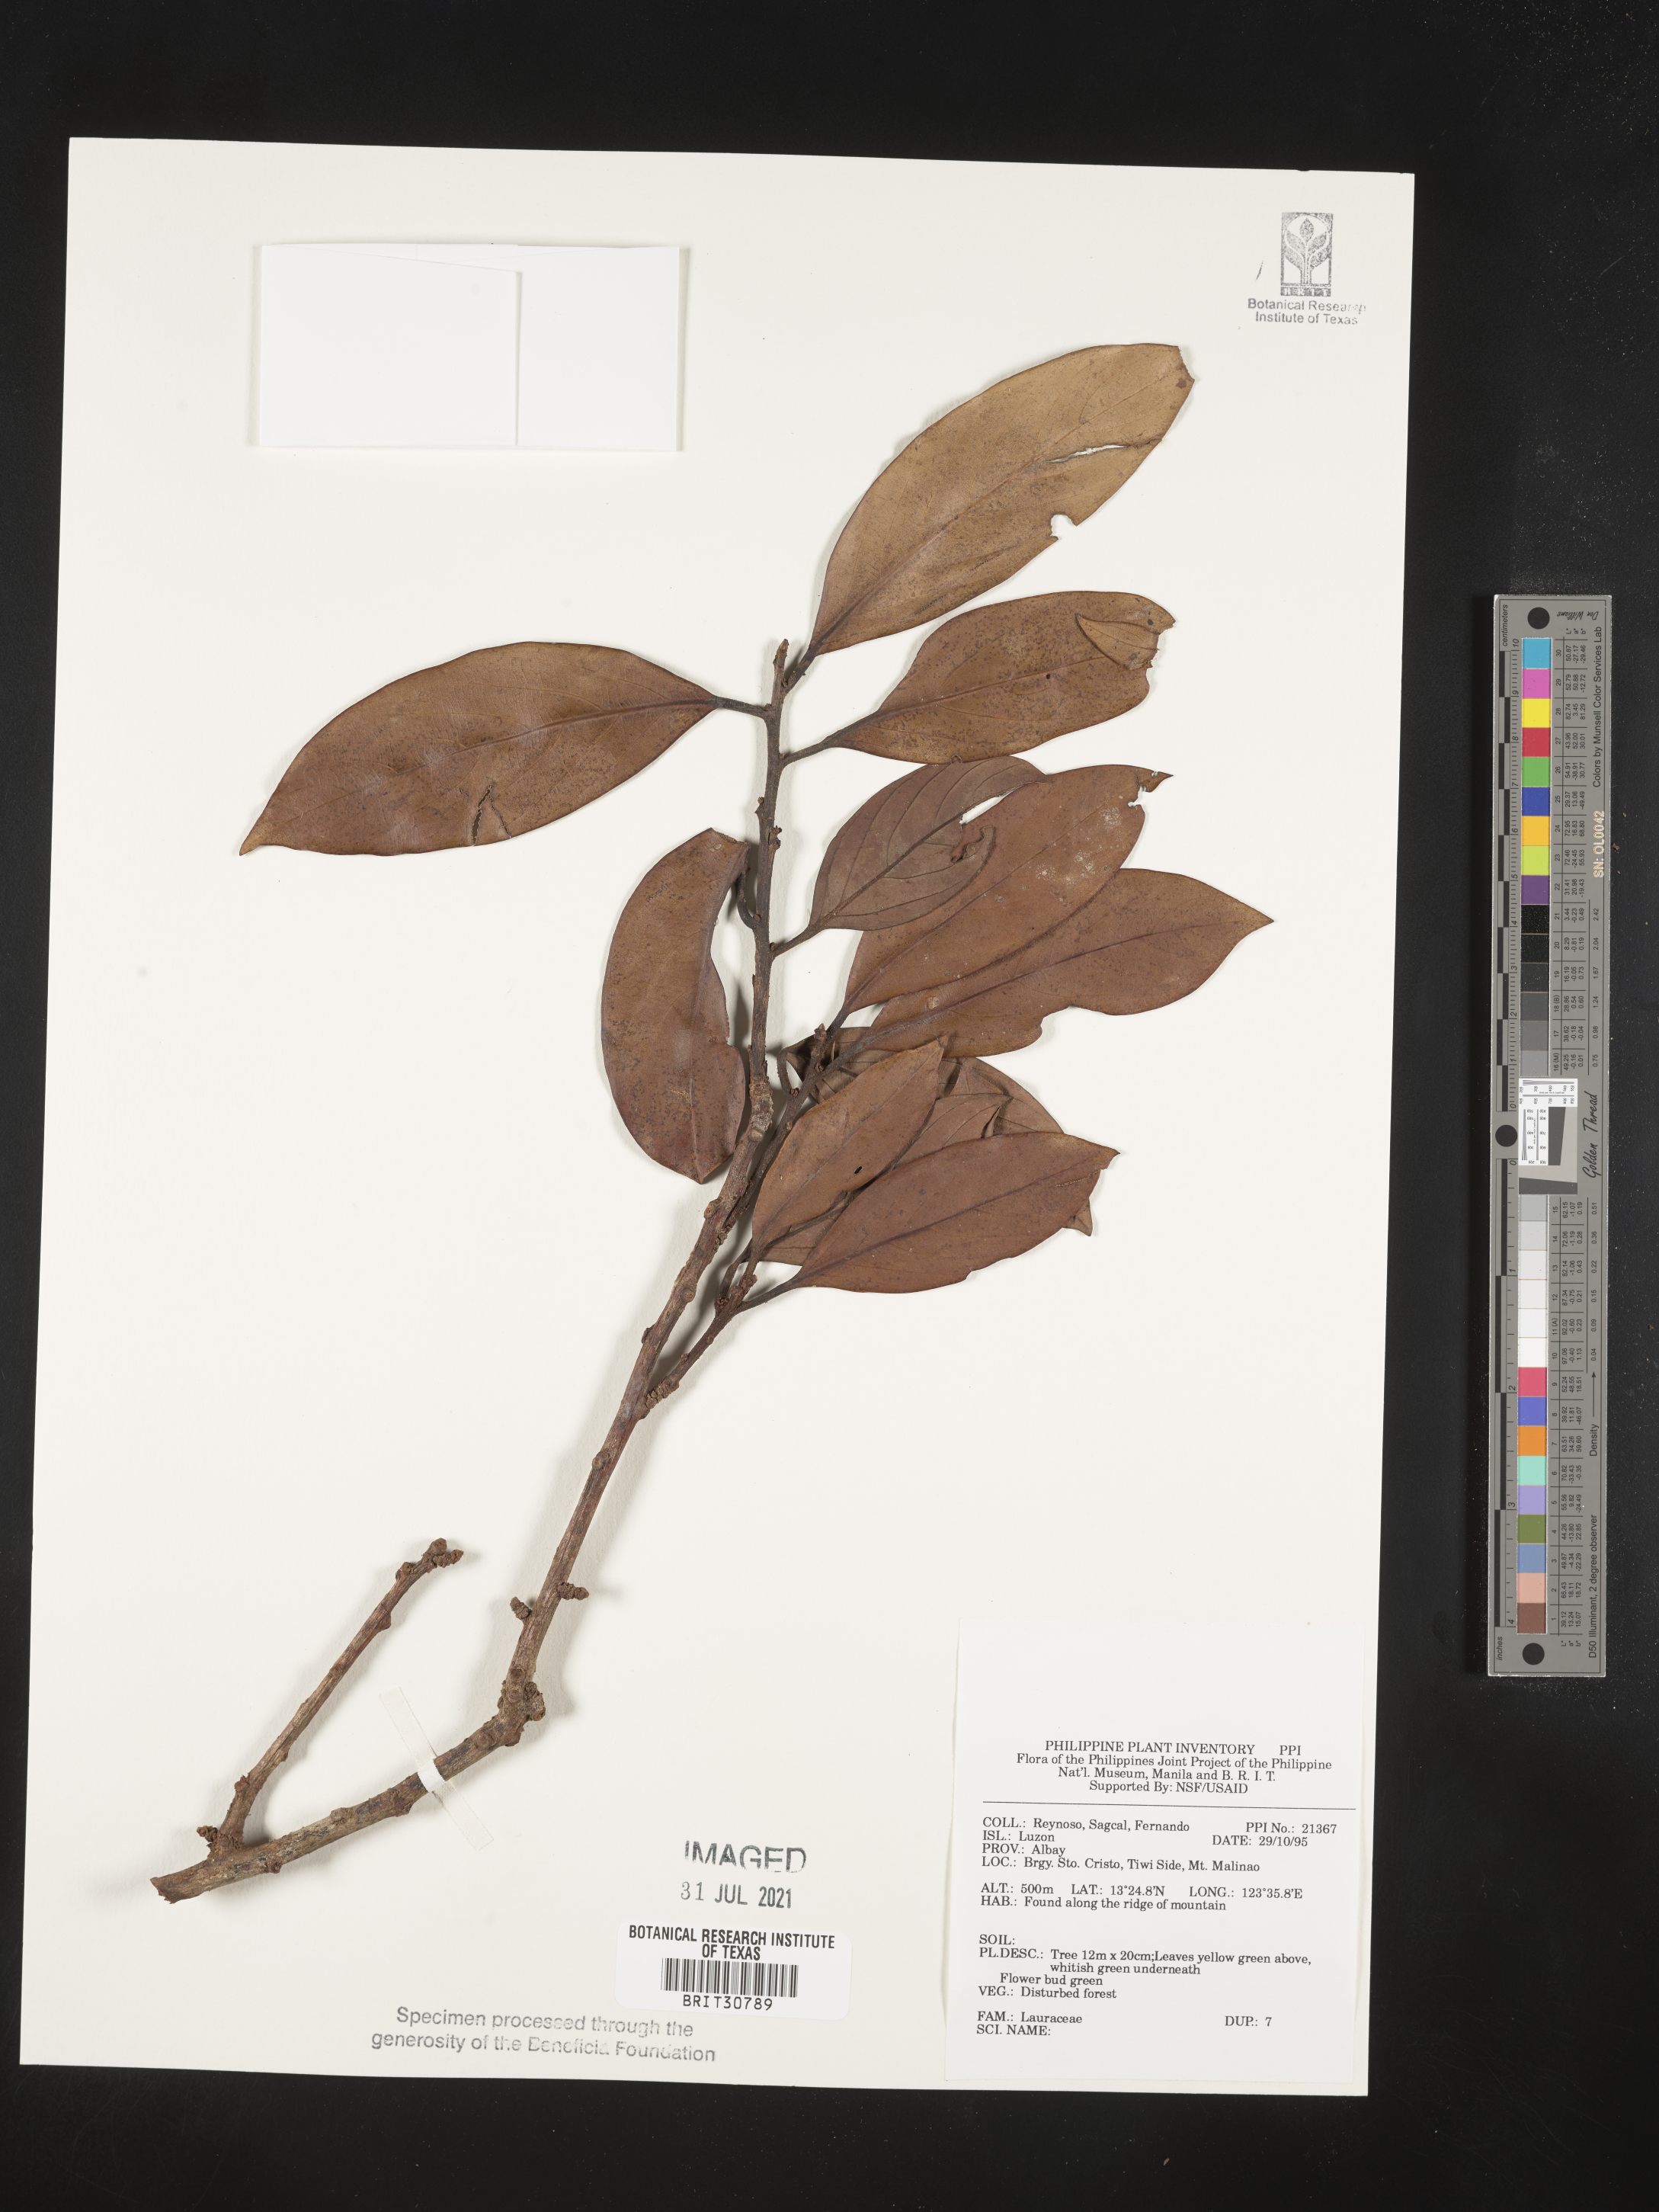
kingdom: Plantae
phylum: Tracheophyta
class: Magnoliopsida
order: Laurales
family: Lauraceae
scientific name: Lauraceae
